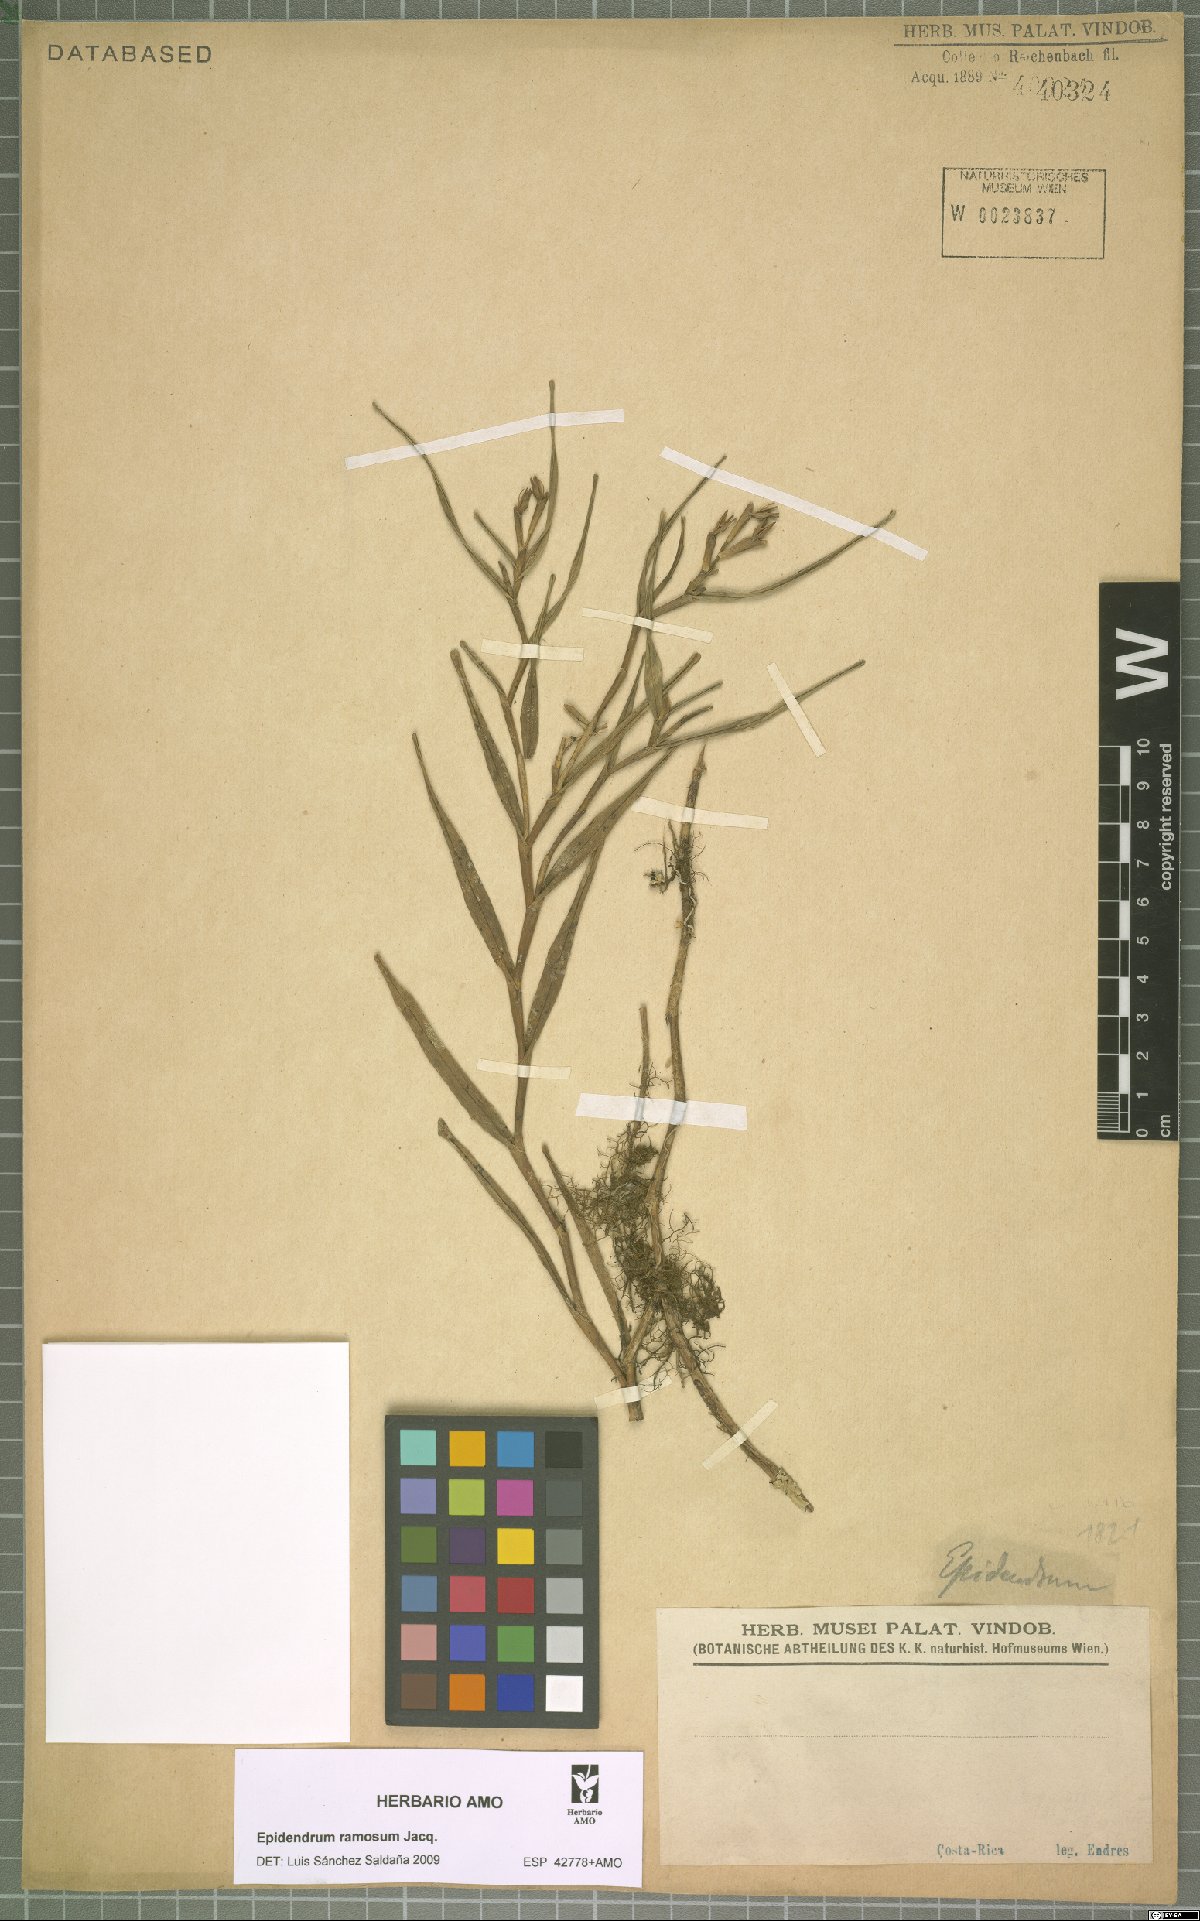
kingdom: Plantae
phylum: Tracheophyta
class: Liliopsida
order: Asparagales
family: Orchidaceae
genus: Epidendrum
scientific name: Epidendrum ramosum
